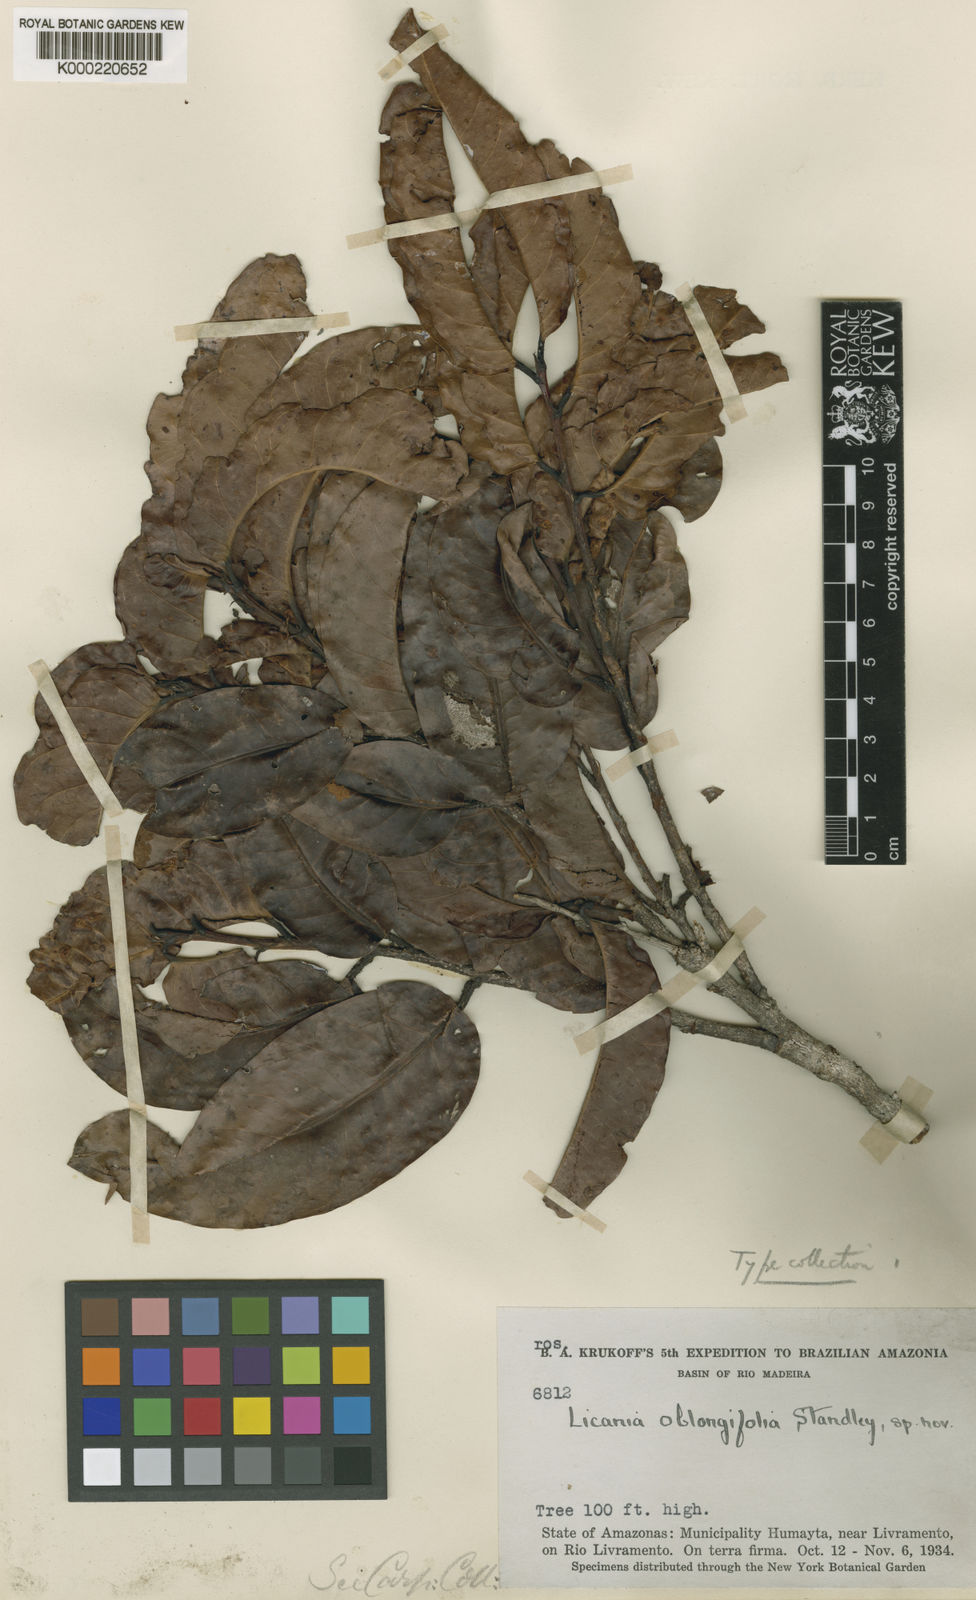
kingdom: Plantae
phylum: Tracheophyta
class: Magnoliopsida
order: Malpighiales
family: Chrysobalanaceae
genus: Hymenopus
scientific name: Hymenopus oblongifolius
